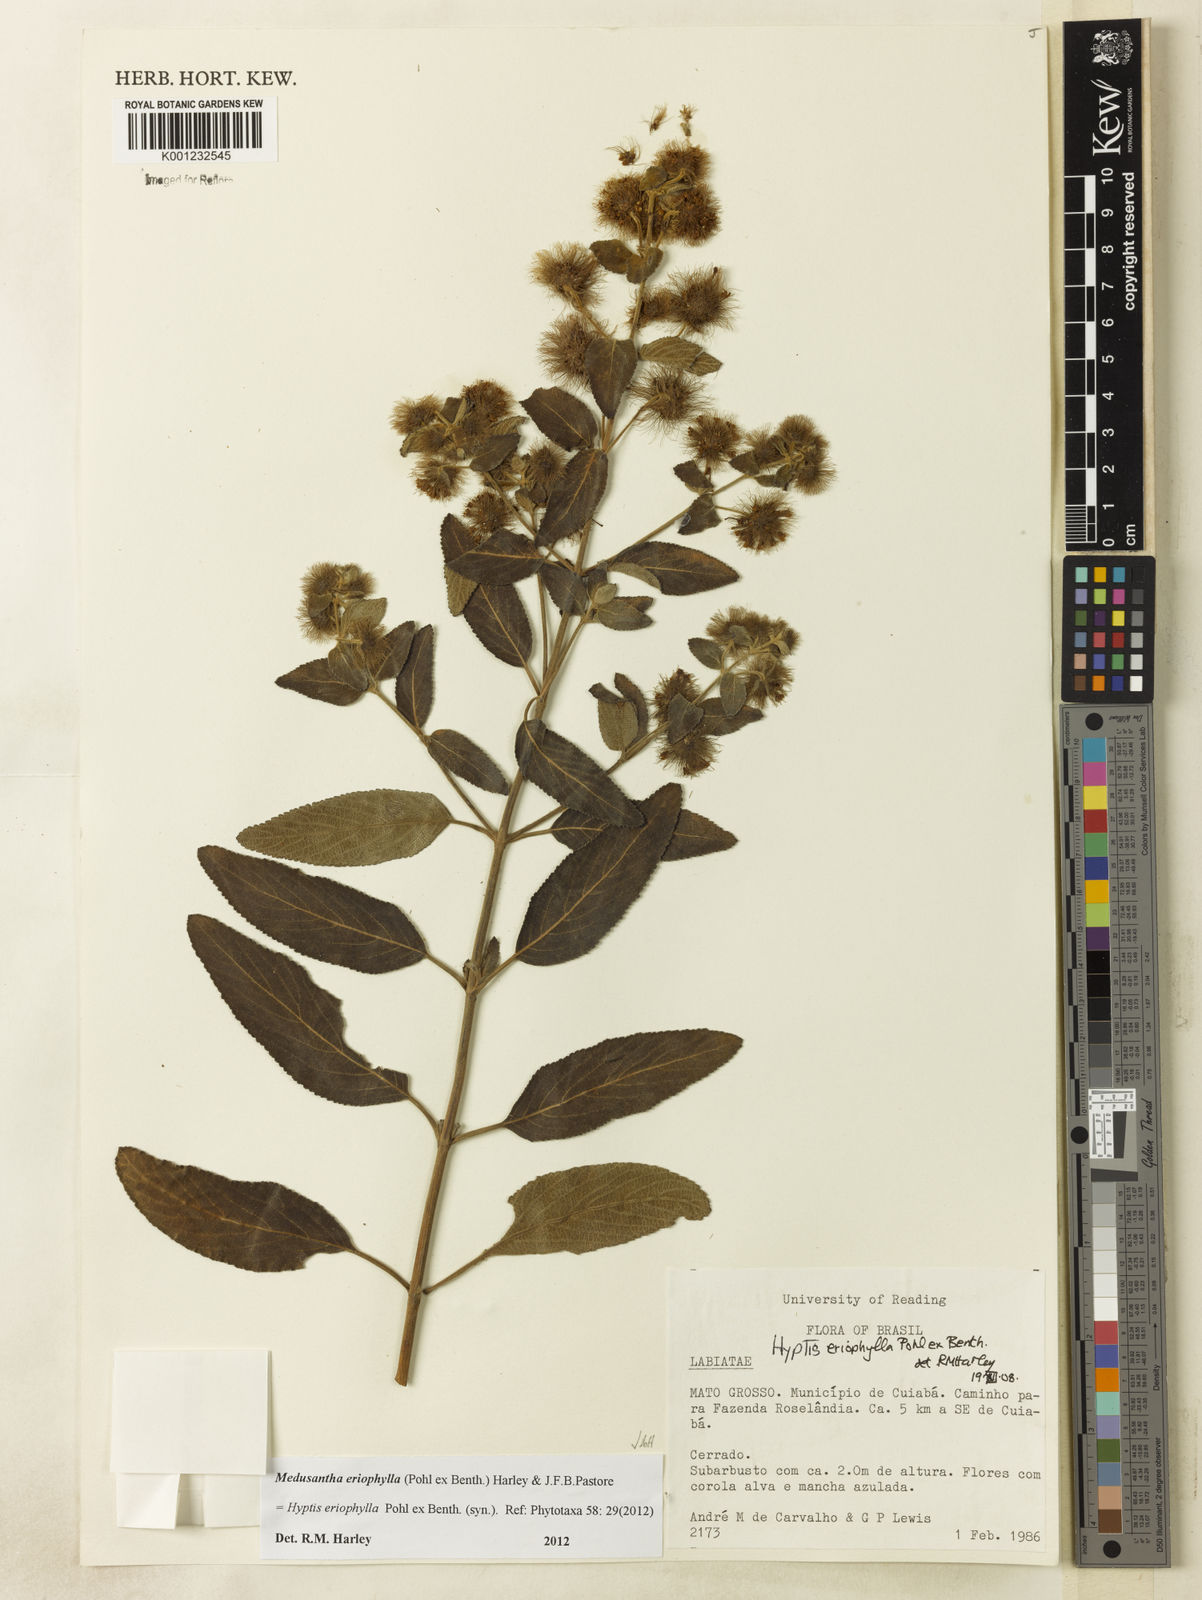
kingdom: Plantae
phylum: Tracheophyta
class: Magnoliopsida
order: Lamiales
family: Lamiaceae
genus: Medusantha
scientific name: Medusantha eriophylla
